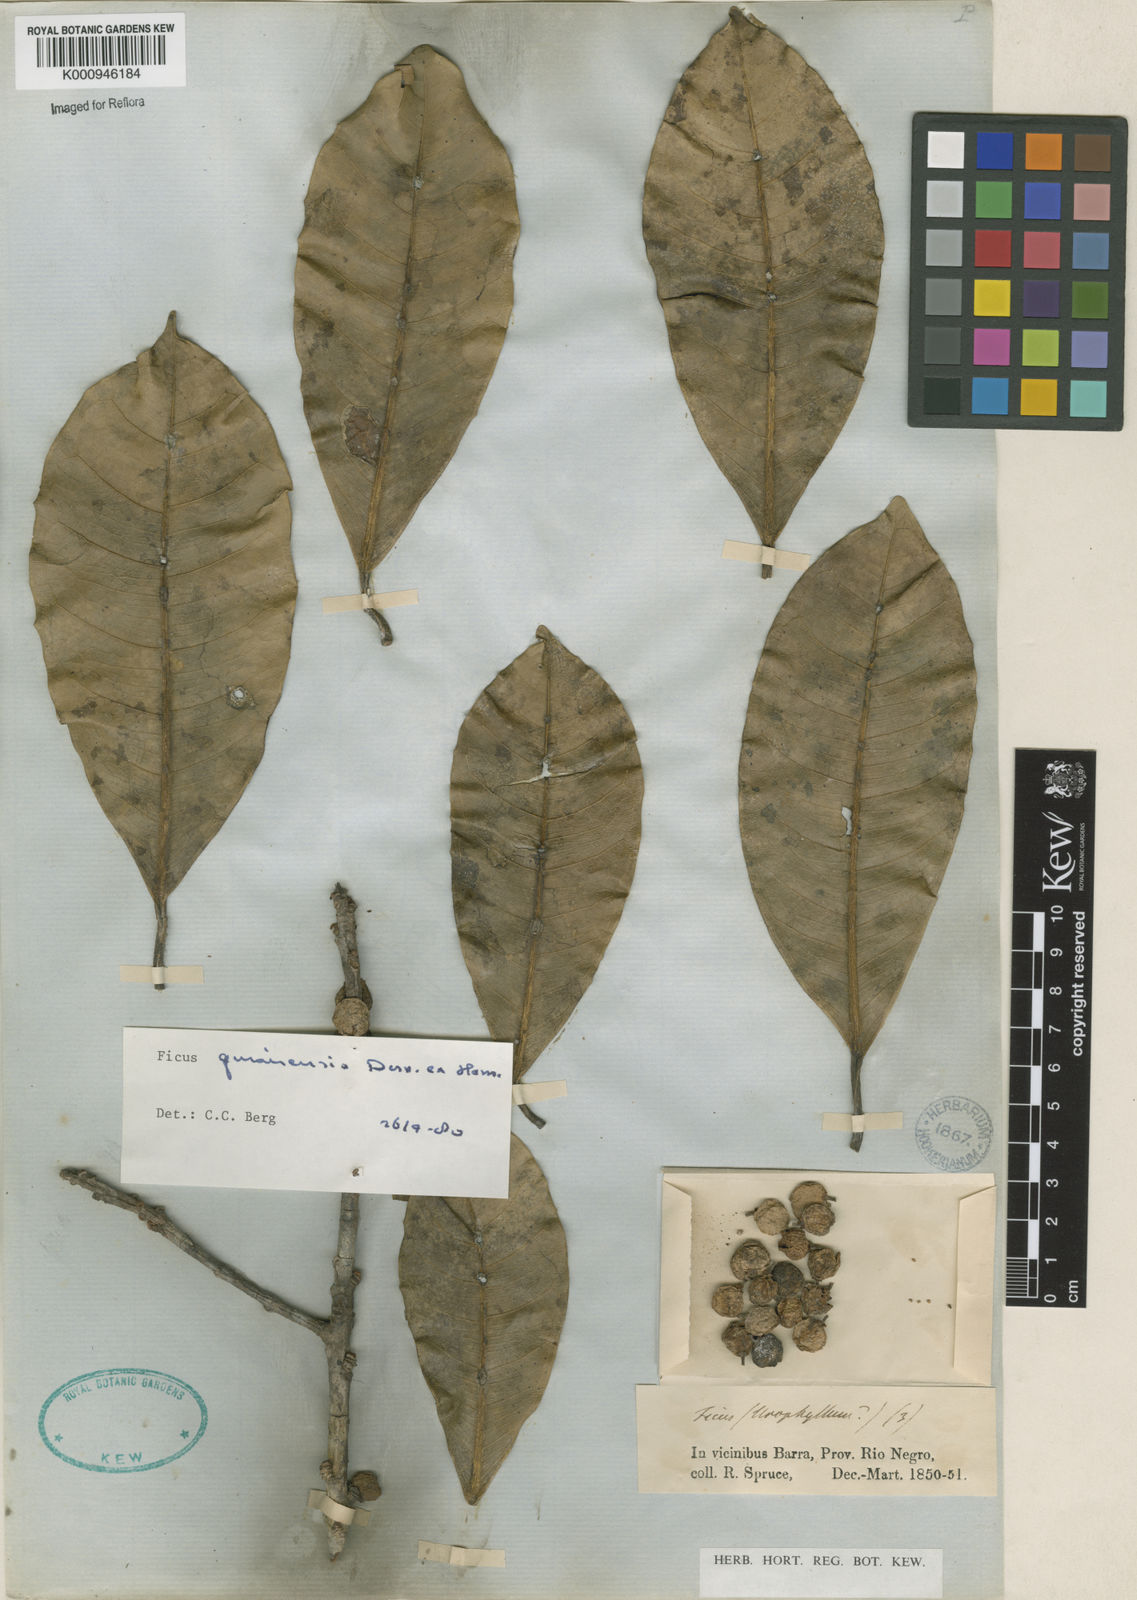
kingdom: Plantae
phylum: Tracheophyta
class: Magnoliopsida
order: Rosales
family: Moraceae
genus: Ficus
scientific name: Ficus americana
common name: Jamaican cherry fig
